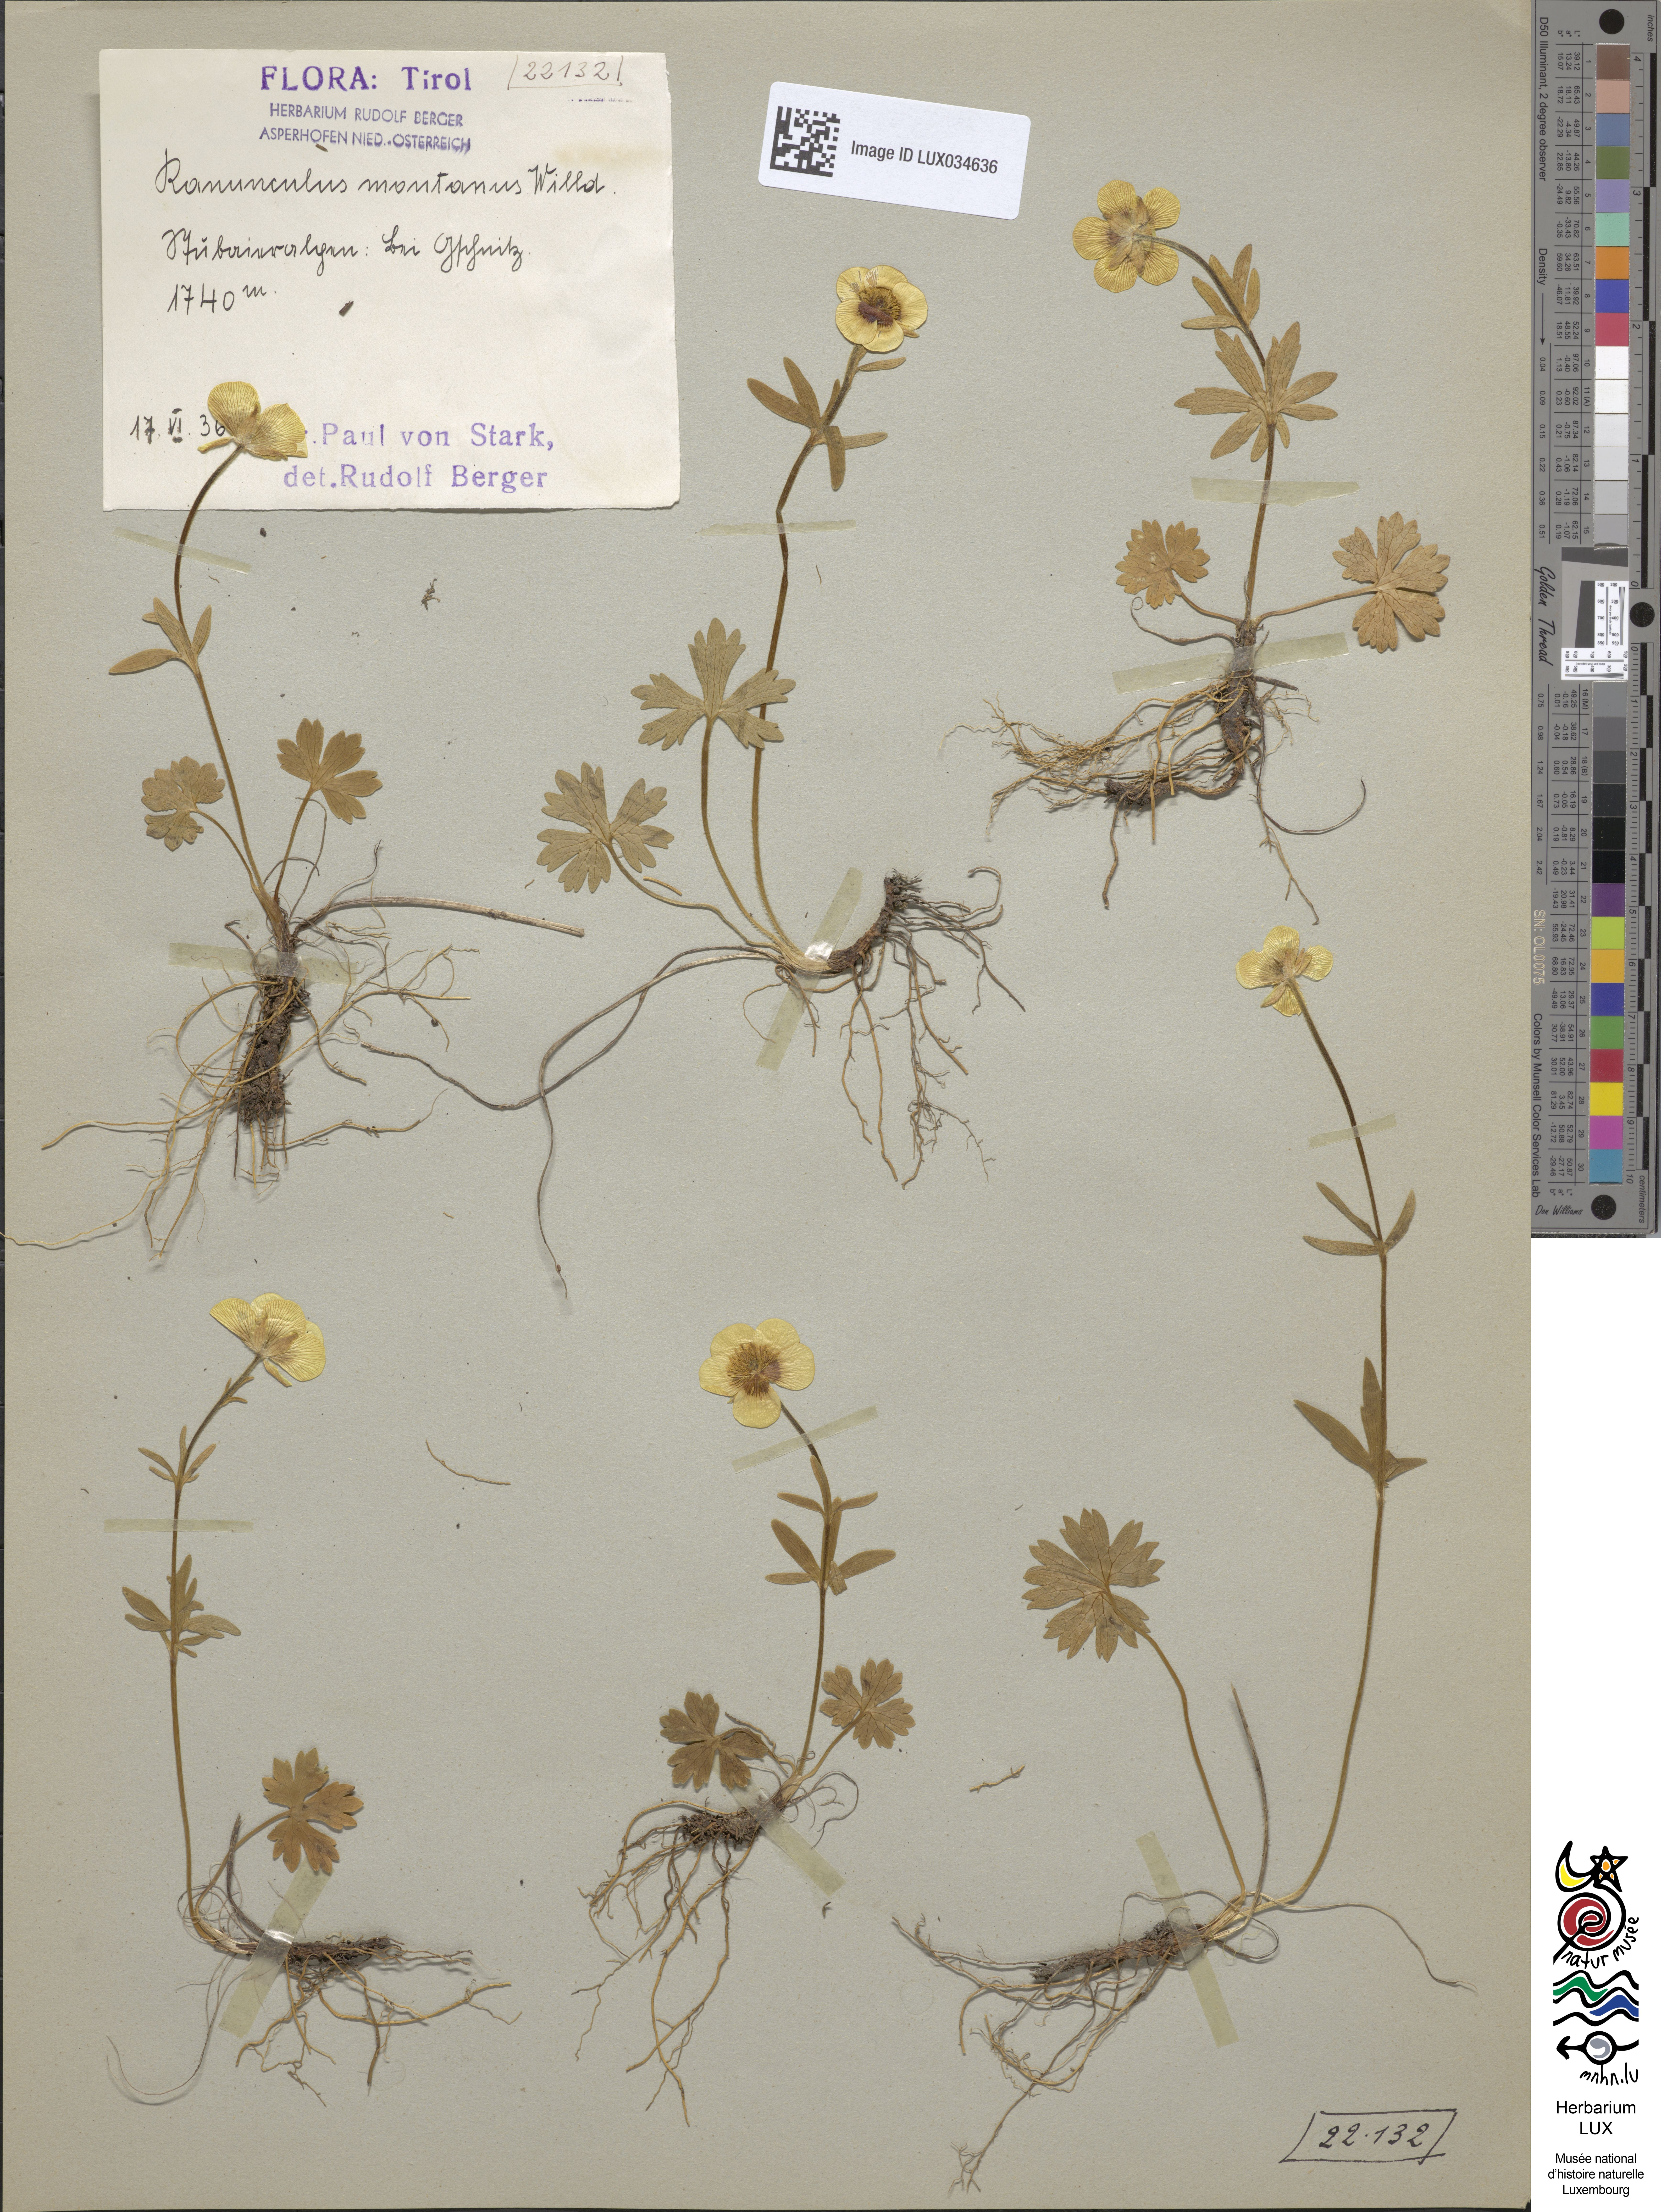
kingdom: Plantae
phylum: Tracheophyta
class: Magnoliopsida
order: Ranunculales
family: Ranunculaceae
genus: Ranunculus
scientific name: Ranunculus montanus
